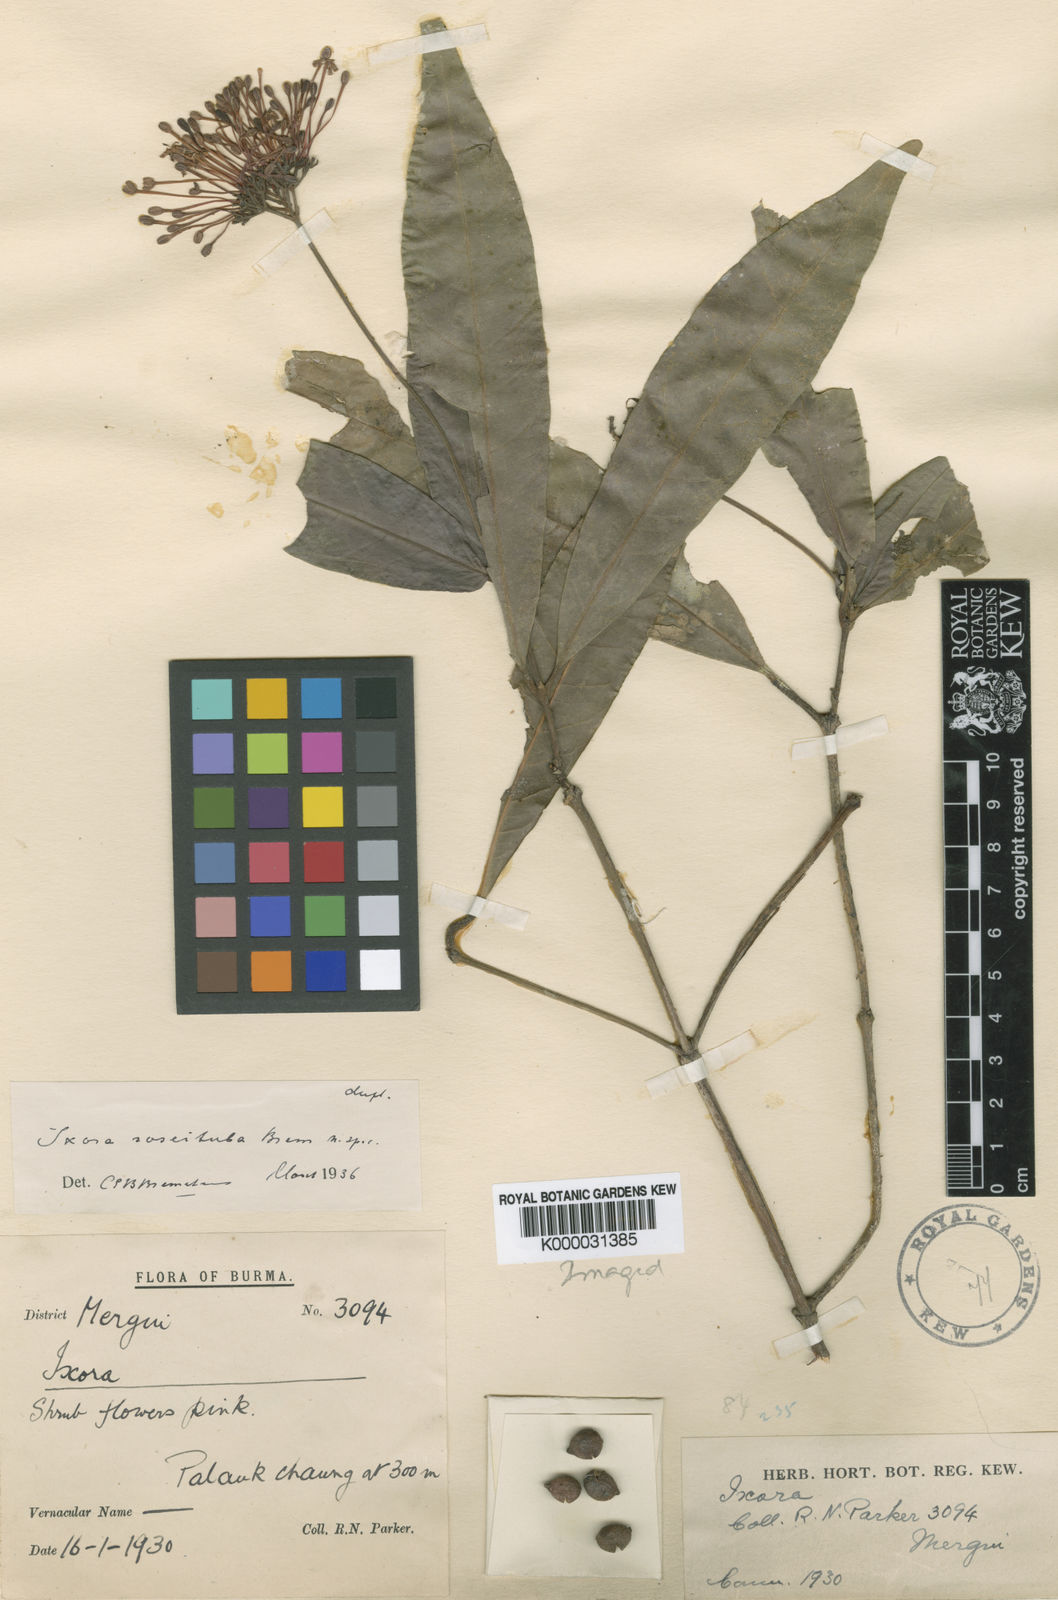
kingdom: Plantae
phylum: Tracheophyta
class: Magnoliopsida
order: Gentianales
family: Rubiaceae
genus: Ixora
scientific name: Ixora
